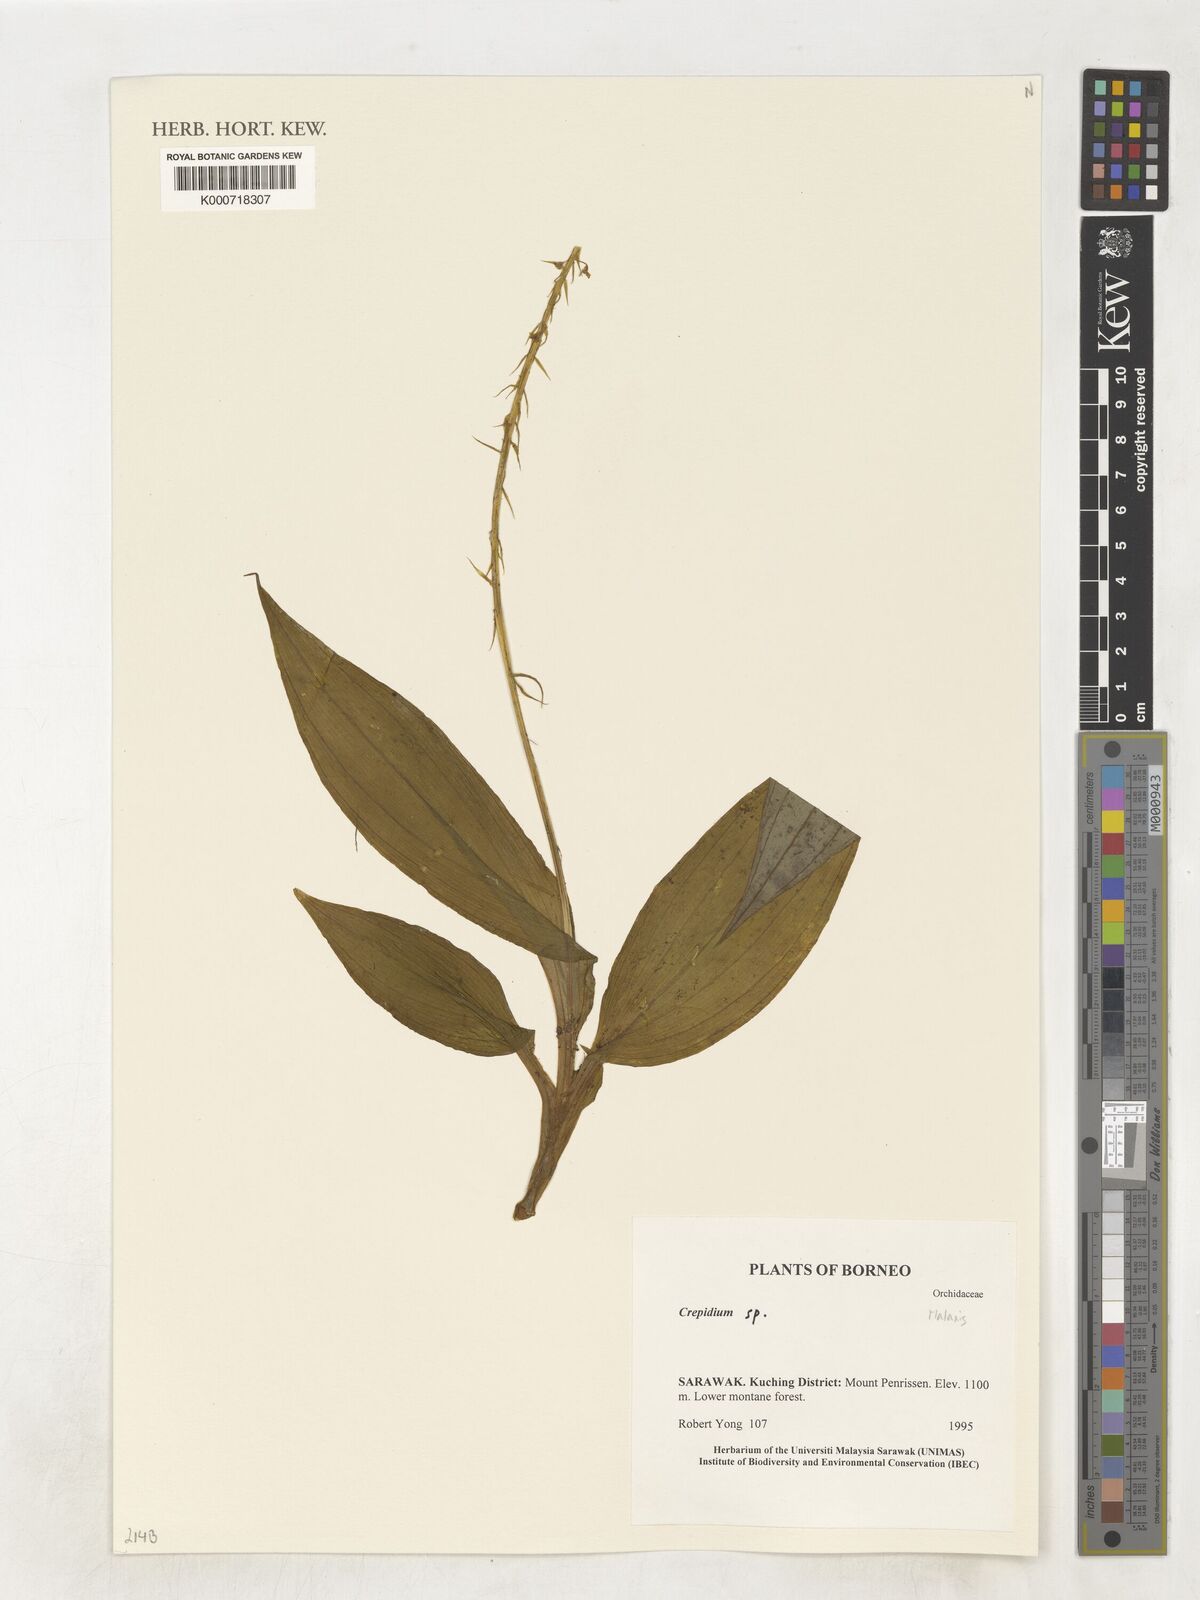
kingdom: Plantae
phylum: Tracheophyta
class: Liliopsida
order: Asparagales
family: Orchidaceae
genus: Malaxis
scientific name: Malaxis
